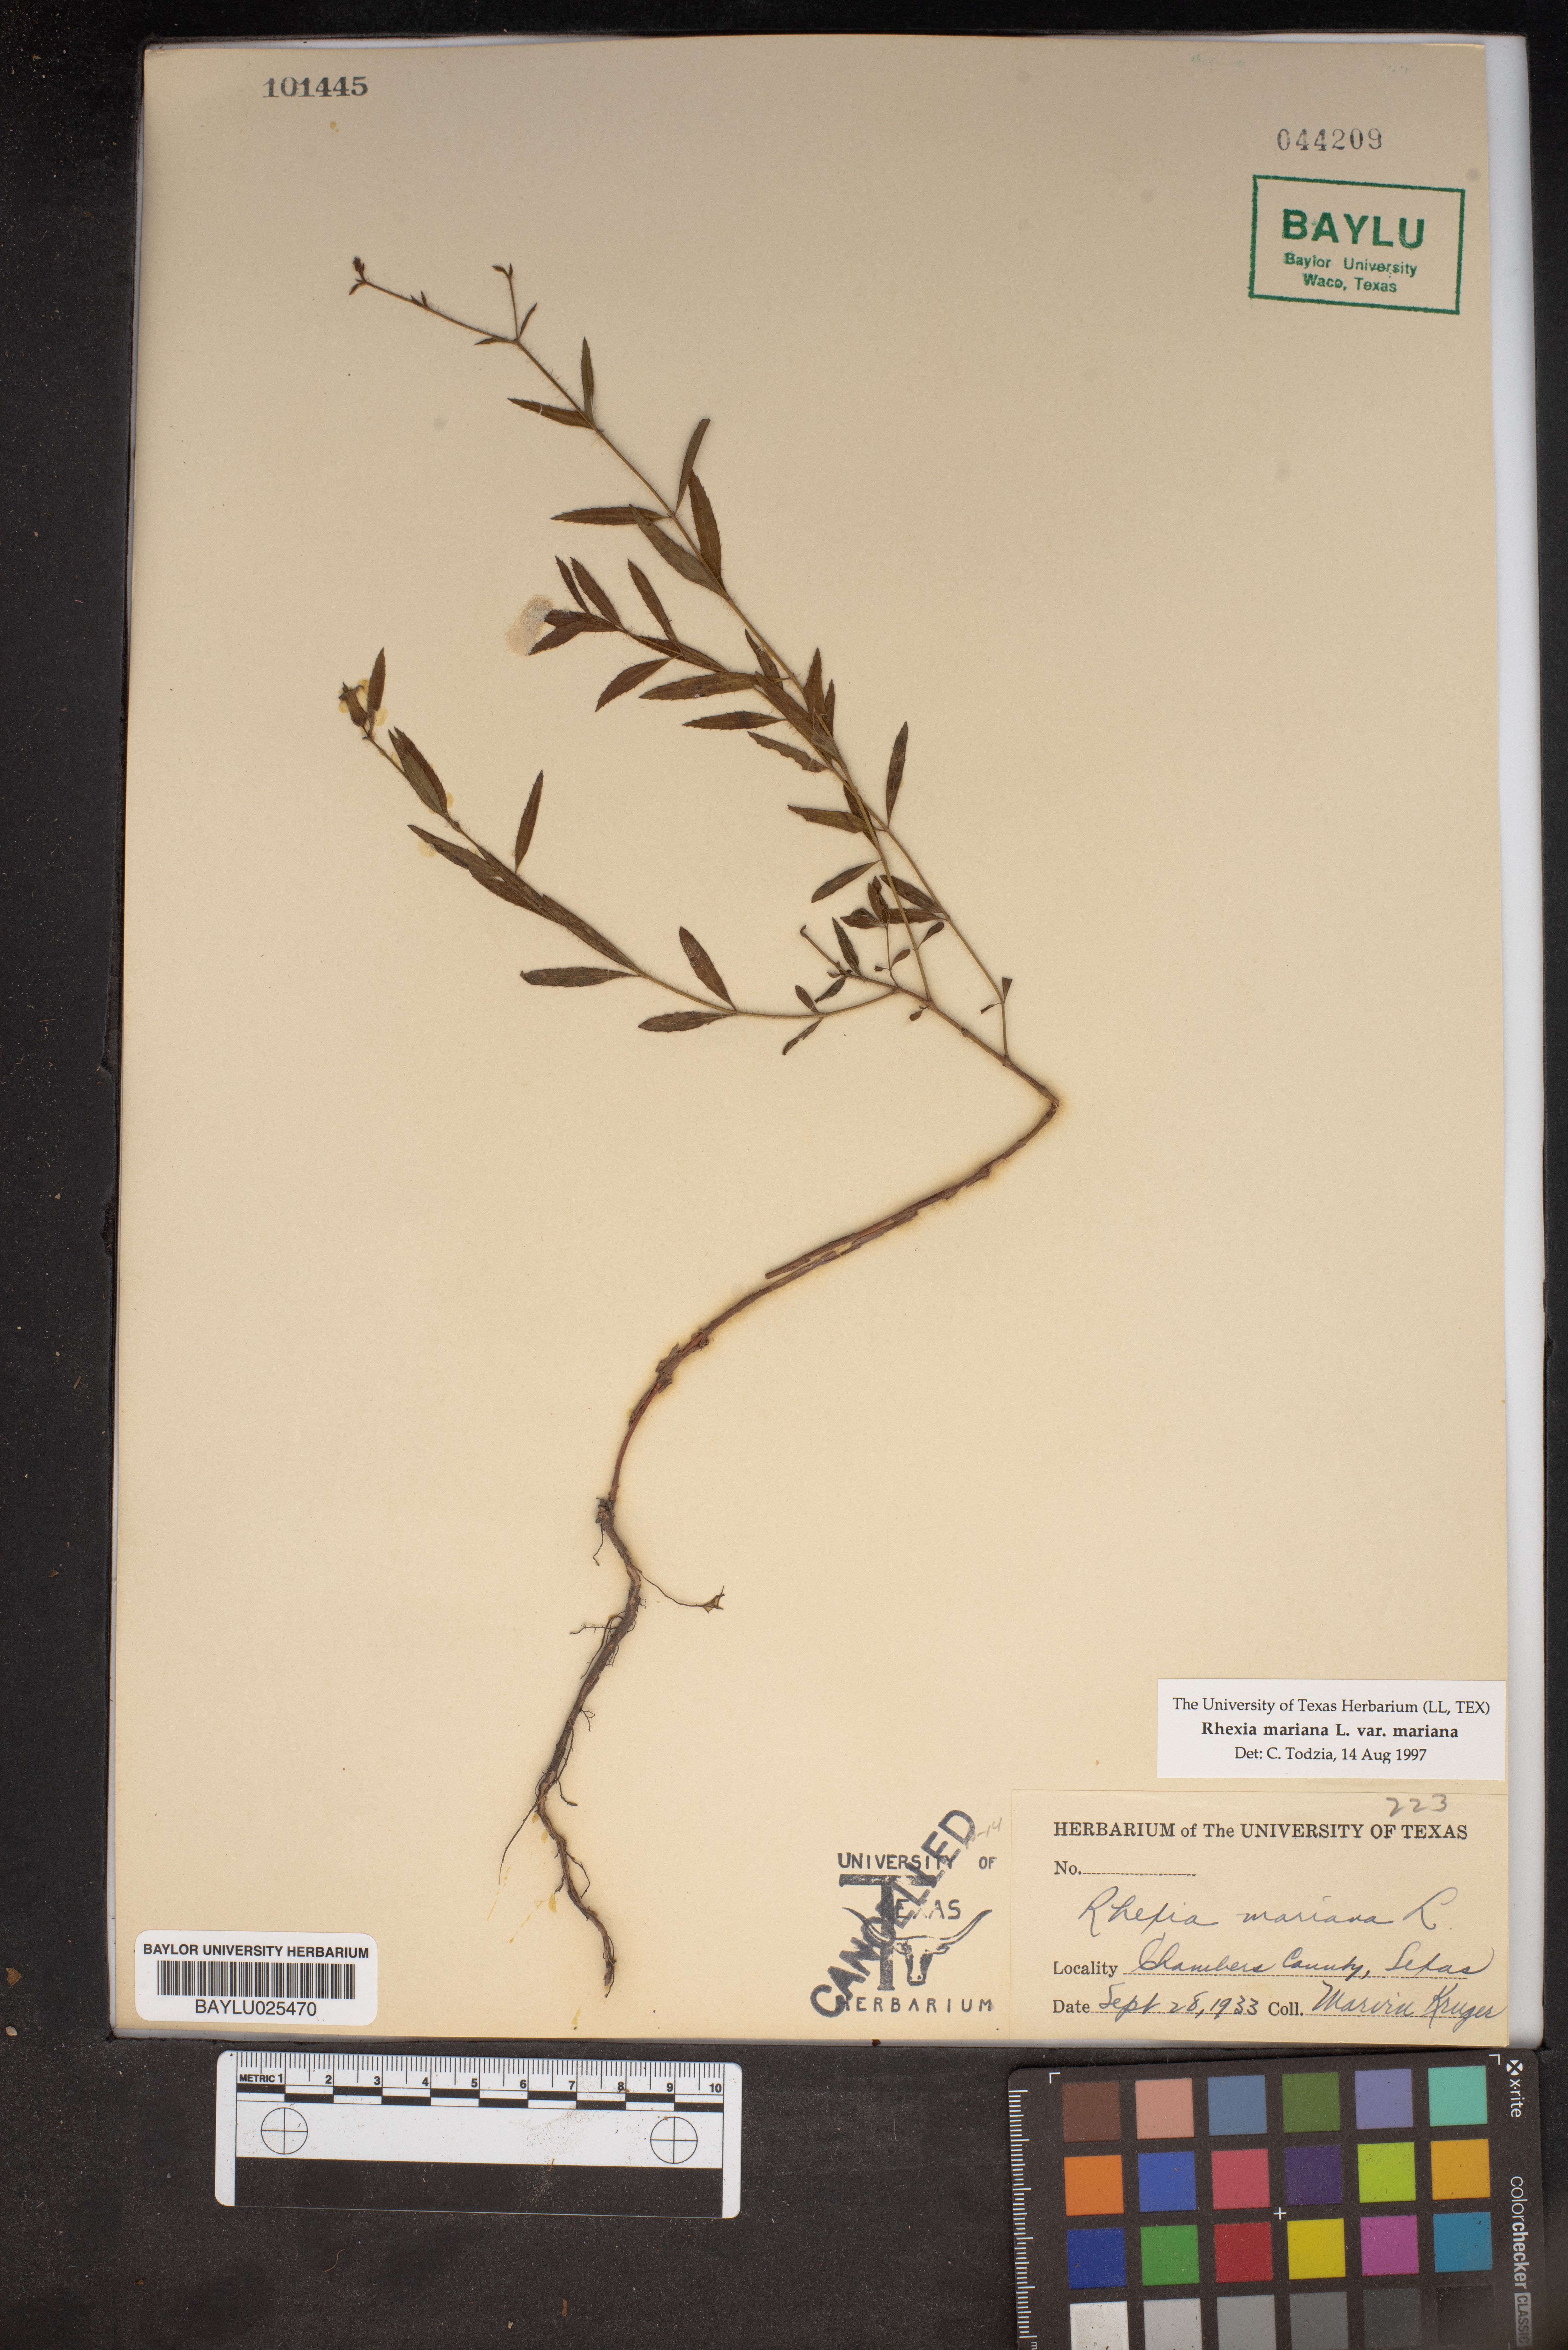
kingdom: Plantae
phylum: Tracheophyta
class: Magnoliopsida
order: Myrtales
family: Melastomataceae
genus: Rhexia
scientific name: Rhexia mariana
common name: Dull meadow-pitcher
